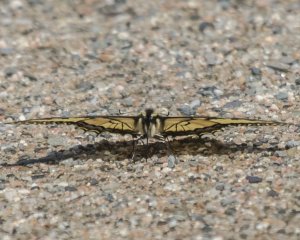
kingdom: Animalia
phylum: Arthropoda
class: Insecta
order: Lepidoptera
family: Papilionidae
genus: Pterourus
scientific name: Pterourus canadensis
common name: Canadian Tiger Swallowtail
